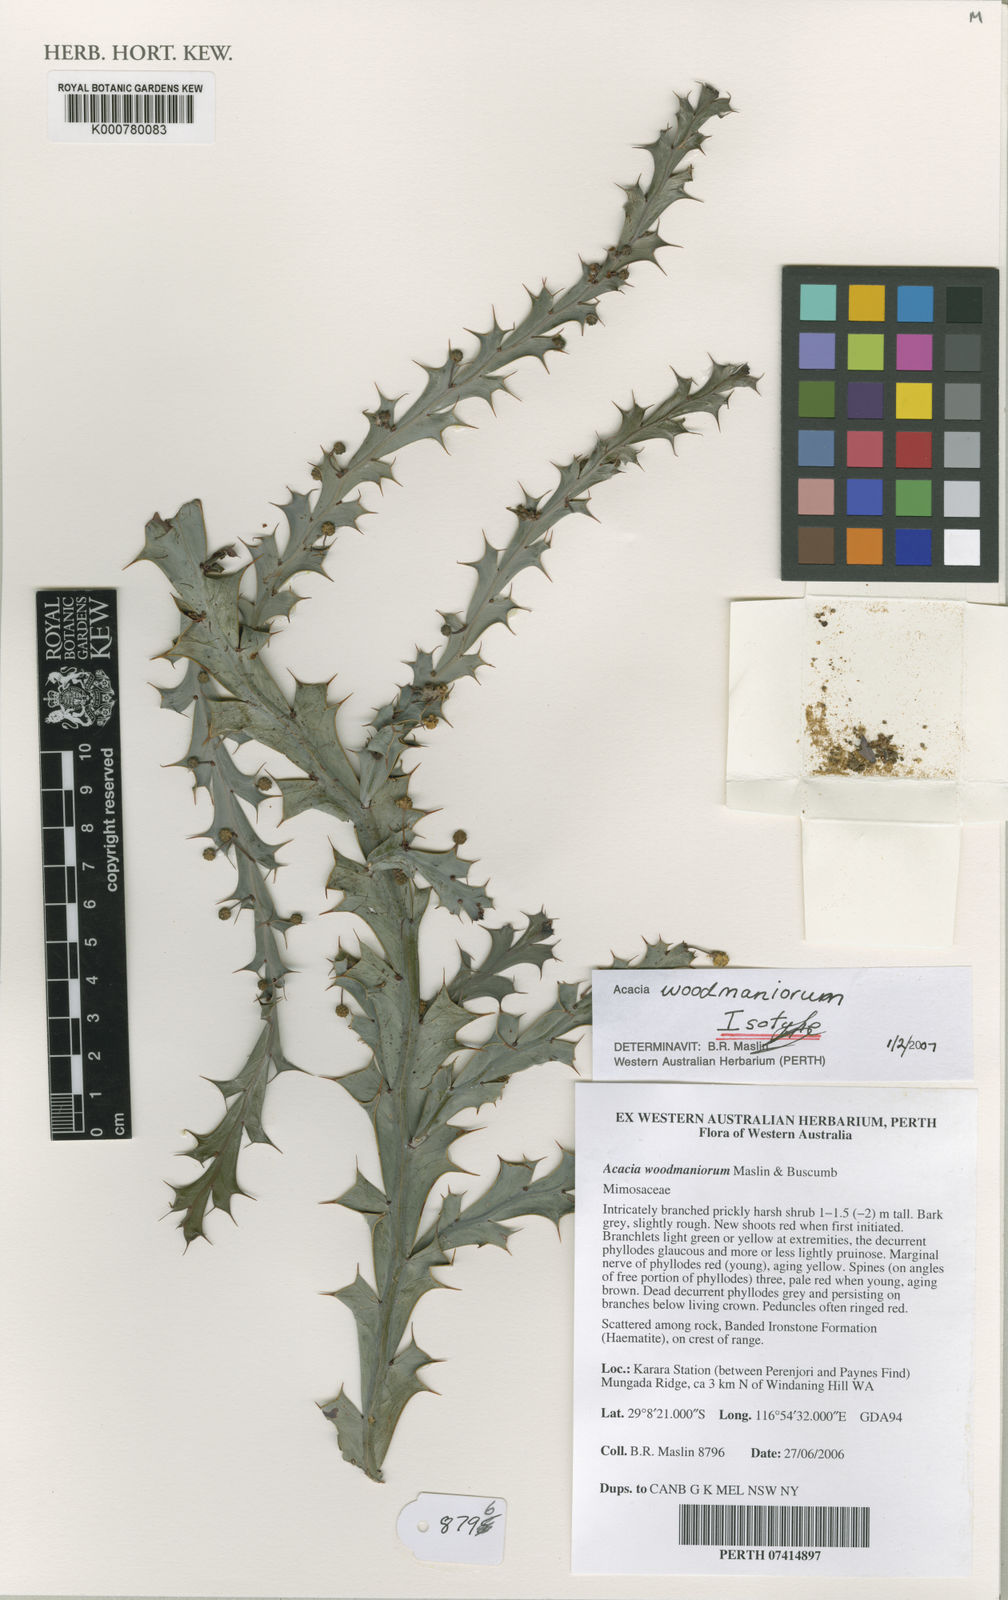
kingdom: Plantae
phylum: Tracheophyta
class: Magnoliopsida
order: Fabales
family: Fabaceae
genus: Acacia
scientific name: Acacia woodmaniorum
